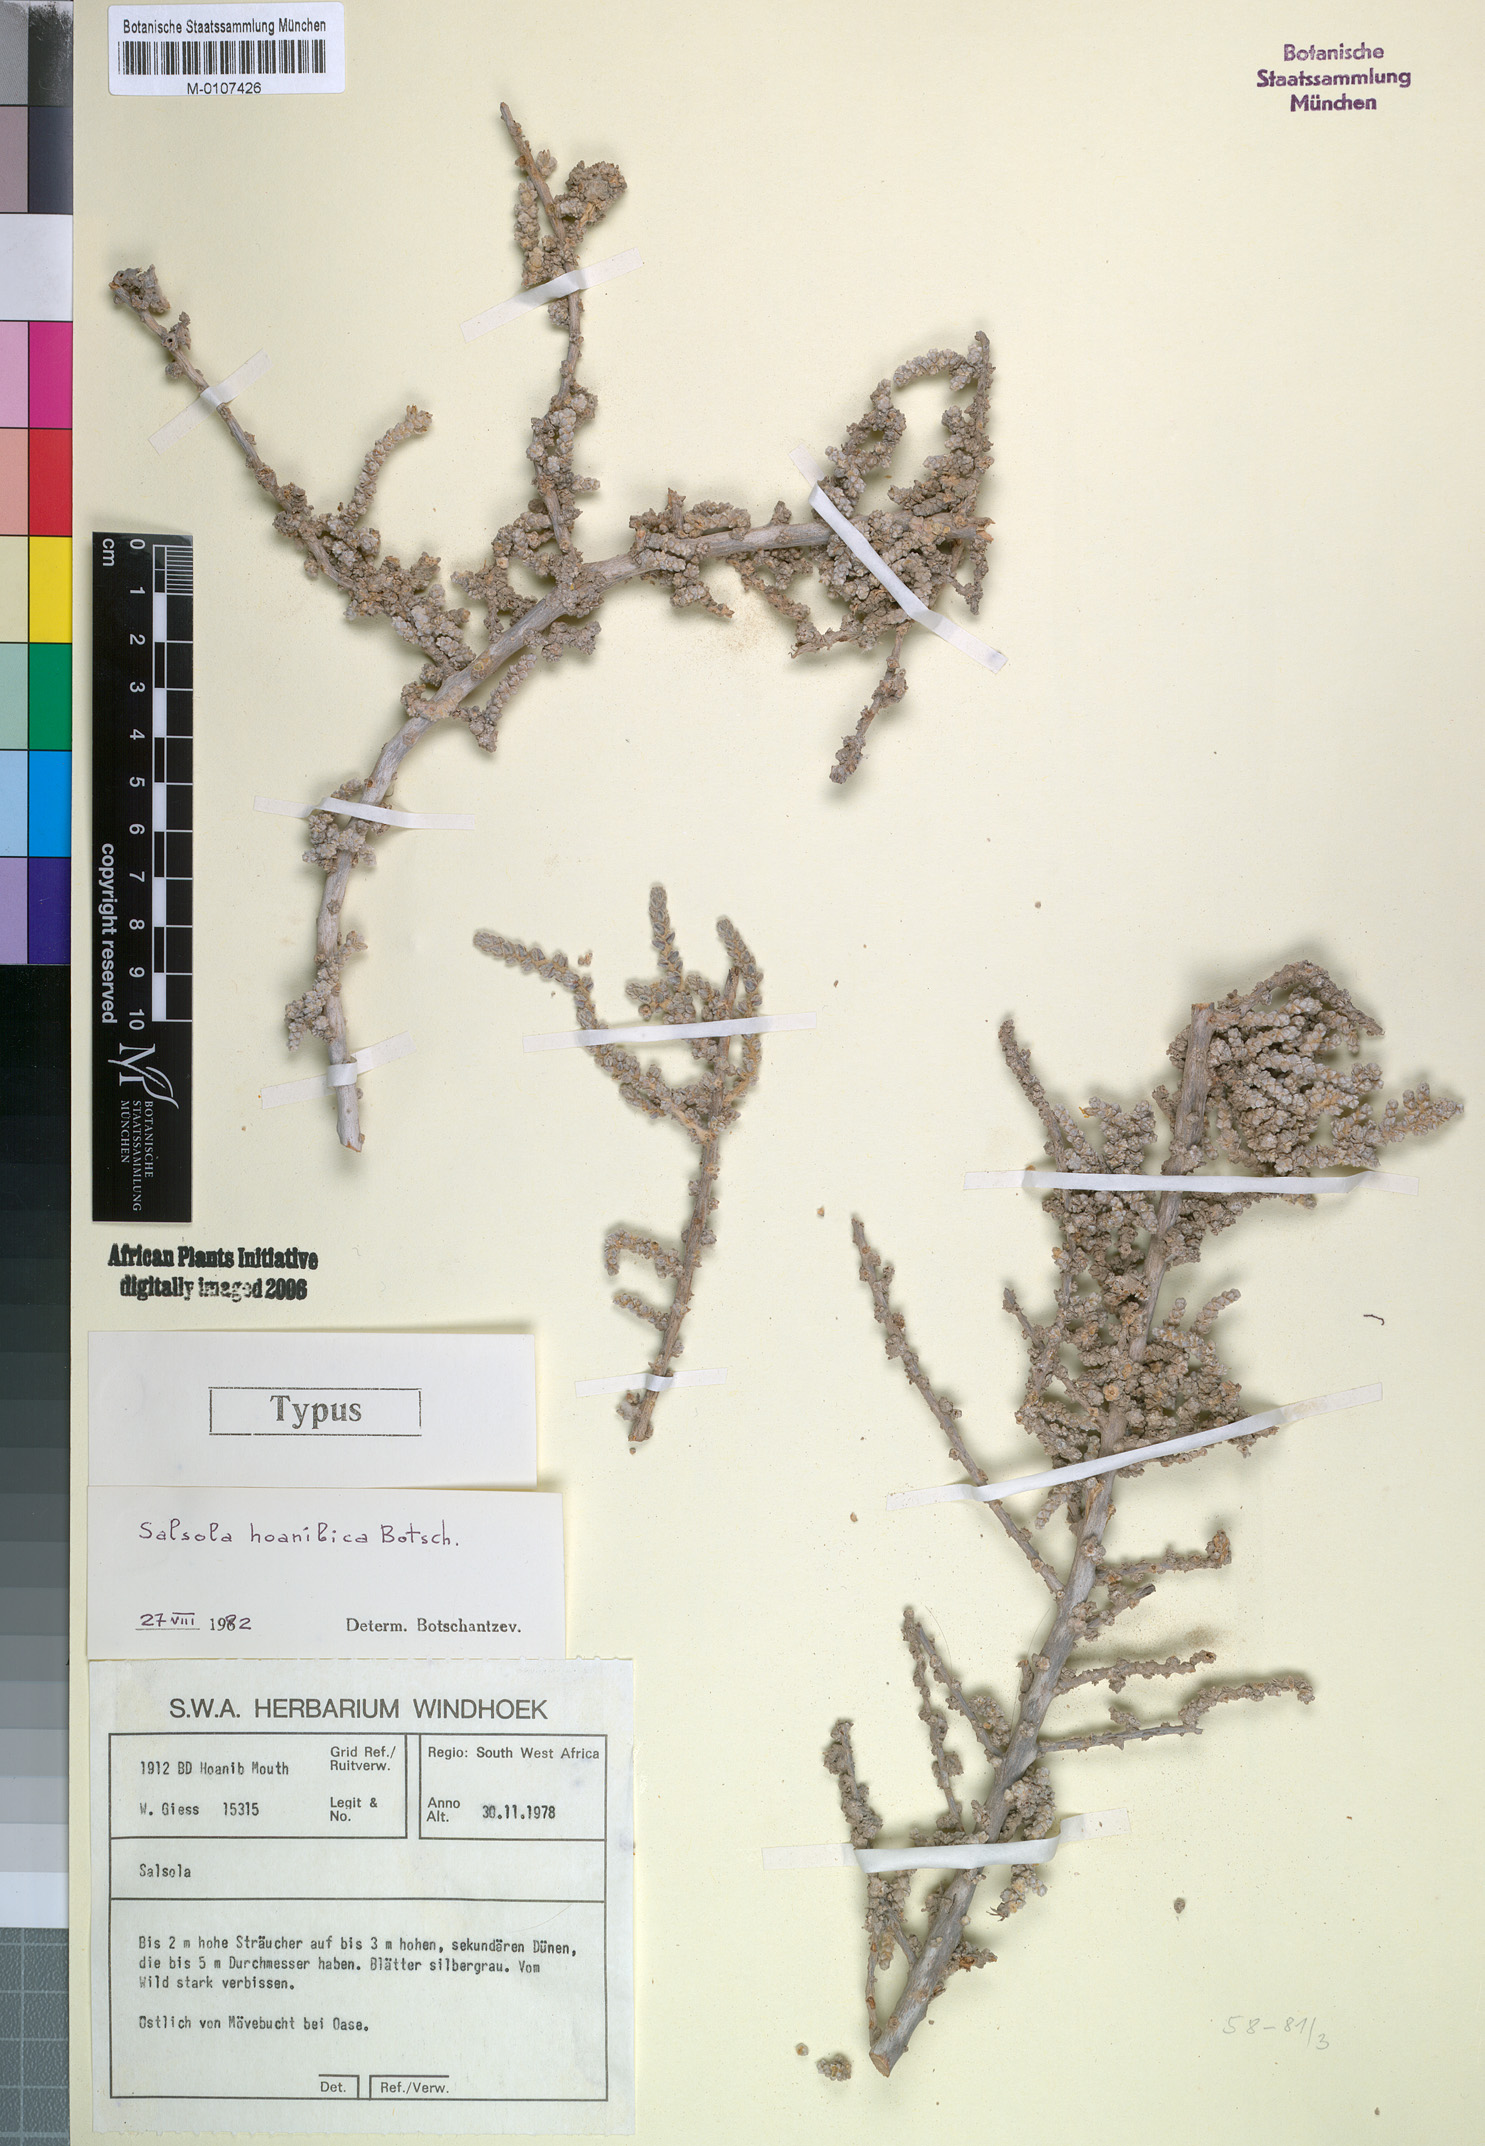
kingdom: Plantae
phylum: Tracheophyta
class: Magnoliopsida
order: Caryophyllales
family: Amaranthaceae
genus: Caroxylon
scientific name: Caroxylon hoanibicum
